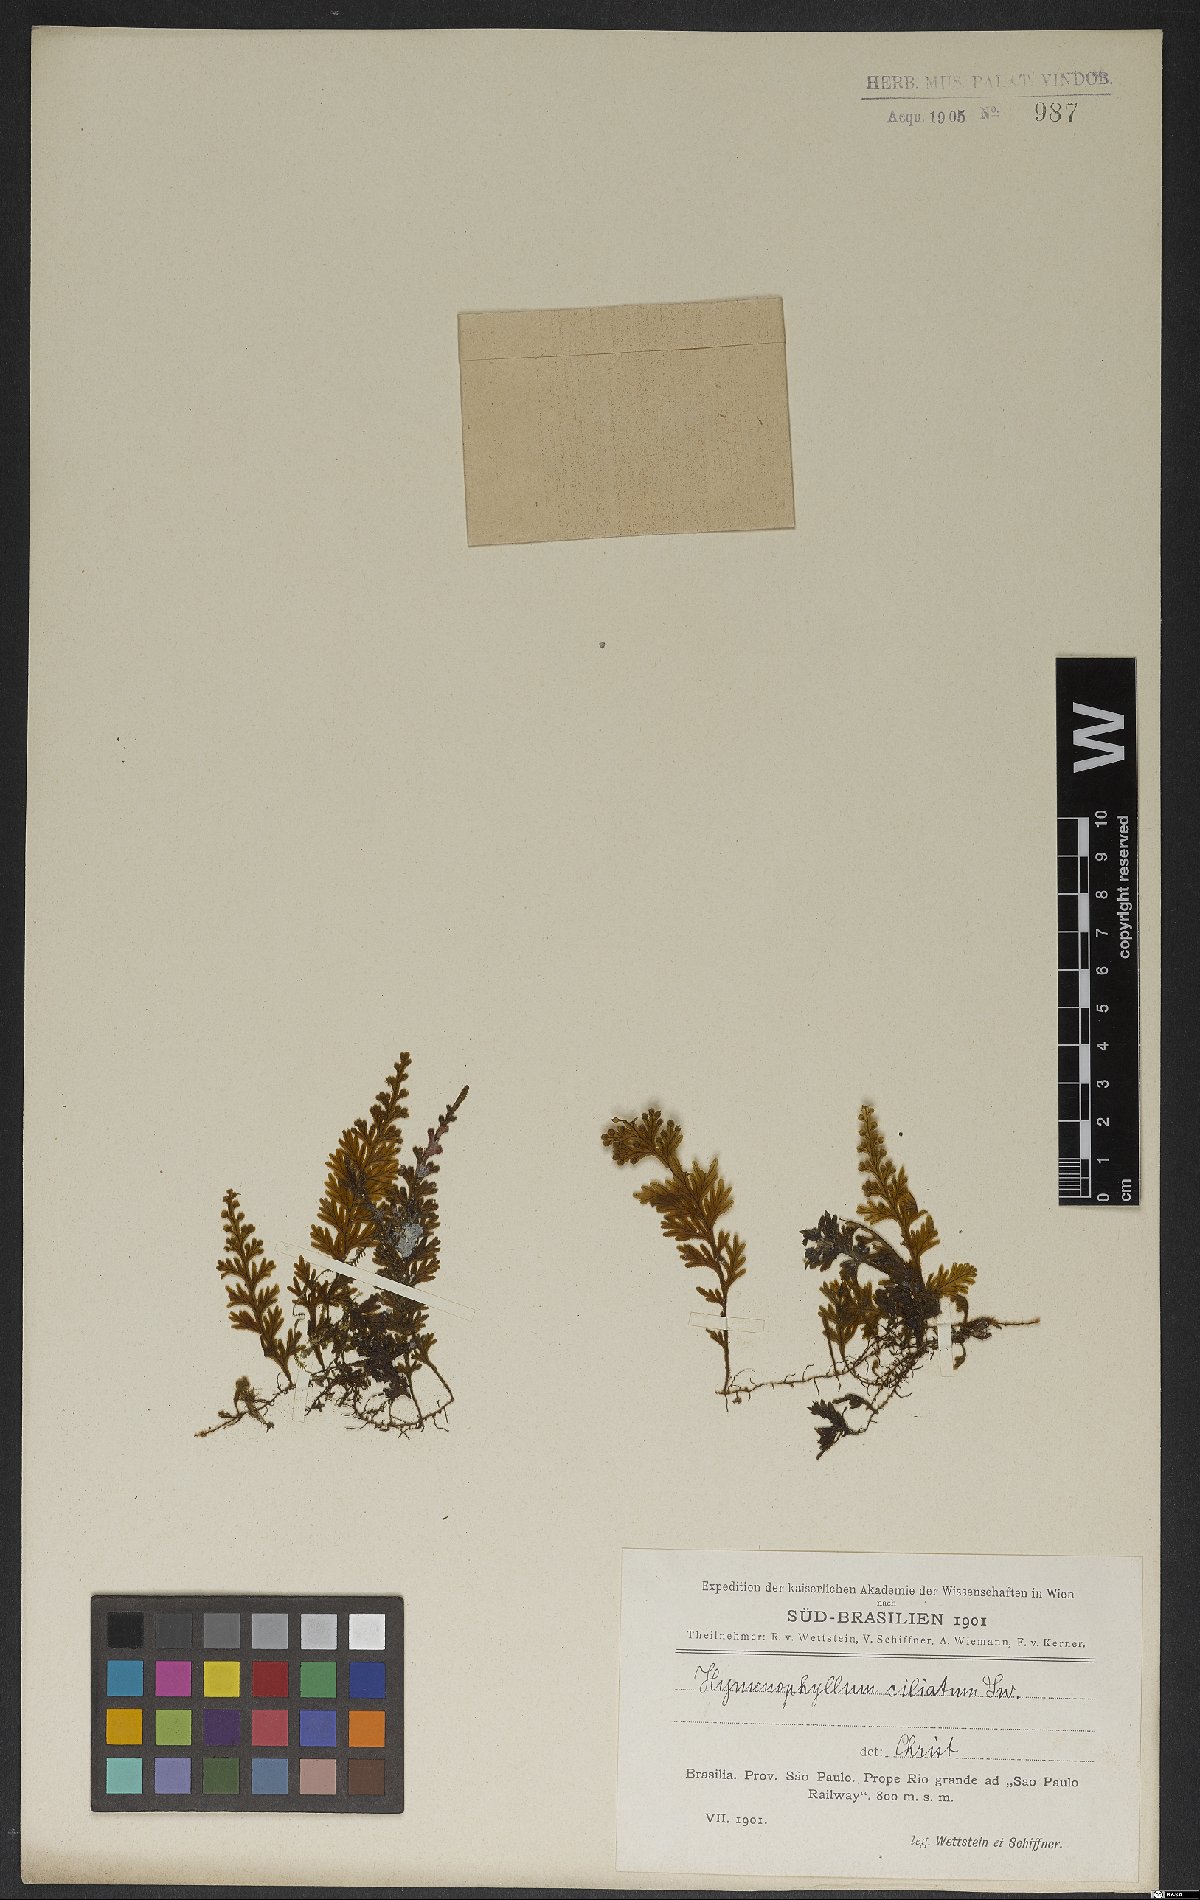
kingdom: Plantae
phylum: Tracheophyta
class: Polypodiopsida
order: Hymenophyllales
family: Hymenophyllaceae
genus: Hymenophyllum
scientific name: Hymenophyllum hirsutum
